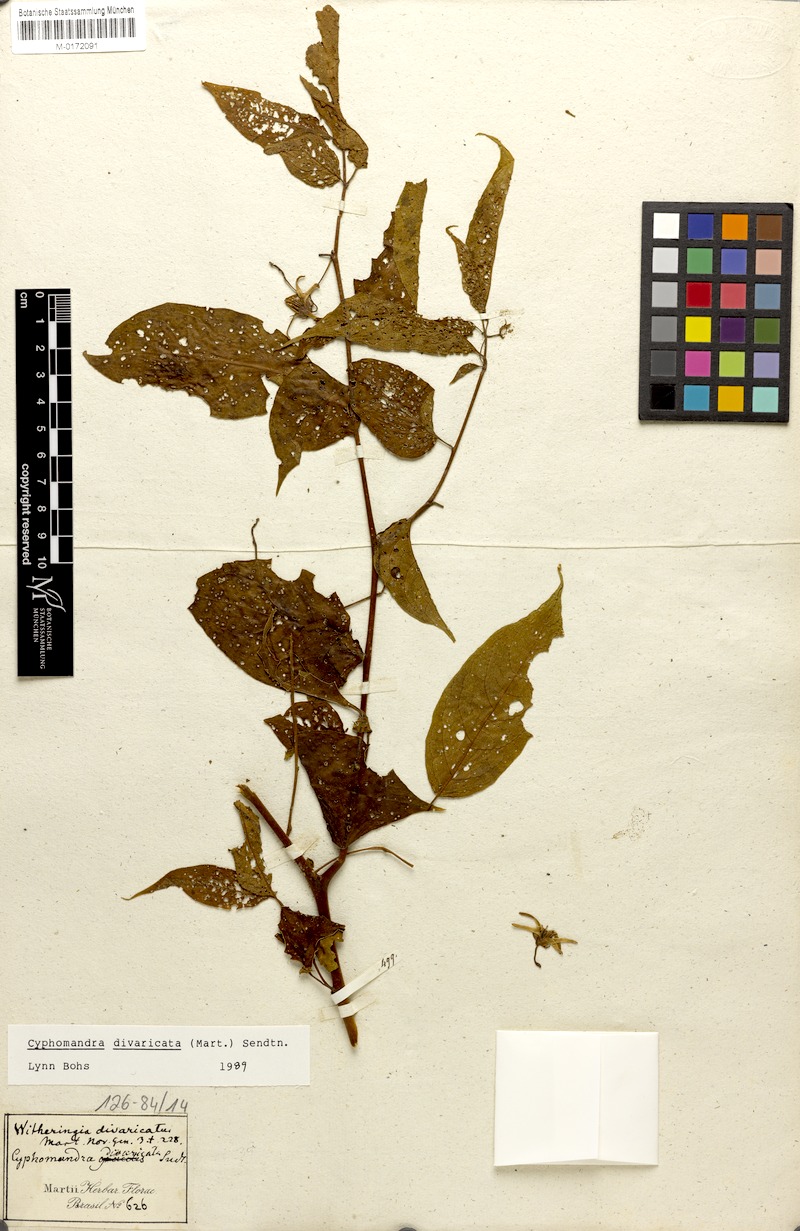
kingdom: Plantae
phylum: Tracheophyta
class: Magnoliopsida
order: Solanales
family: Solanaceae
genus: Solanum
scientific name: Solanum melissarum
